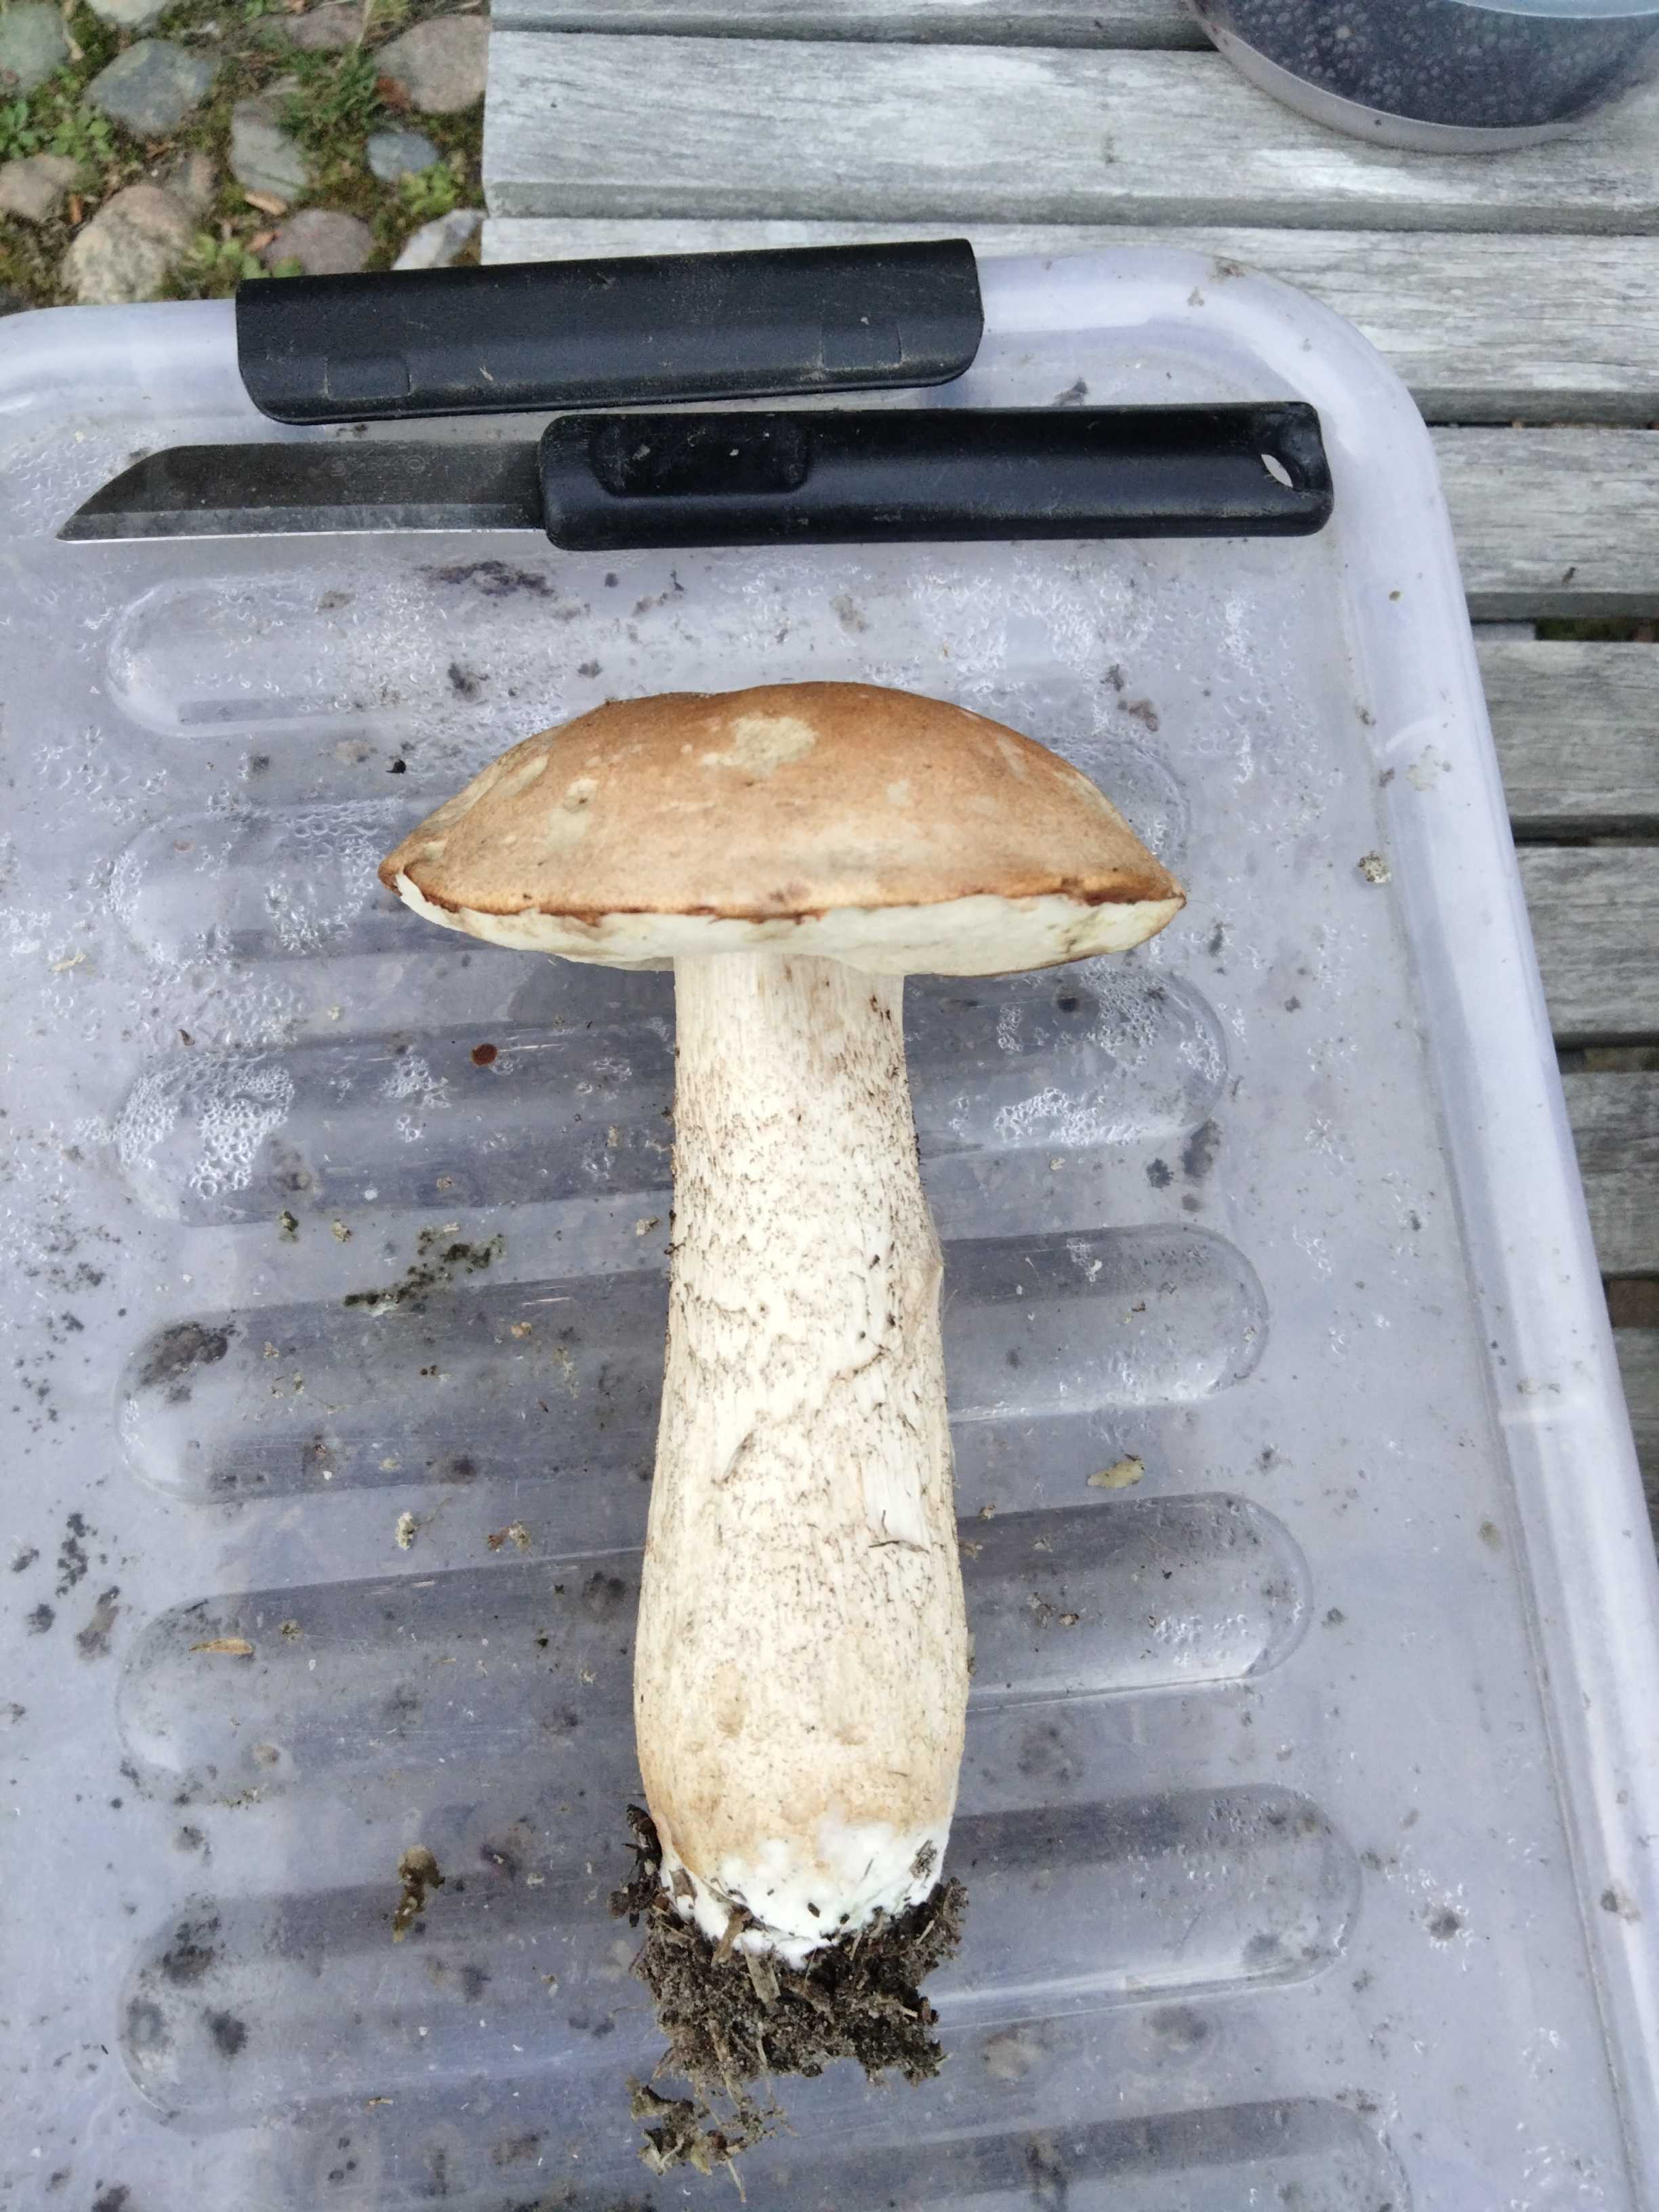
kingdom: Fungi
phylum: Basidiomycota
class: Agaricomycetes
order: Boletales
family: Boletaceae
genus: Leccinum
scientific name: Leccinum
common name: skælrørhat
